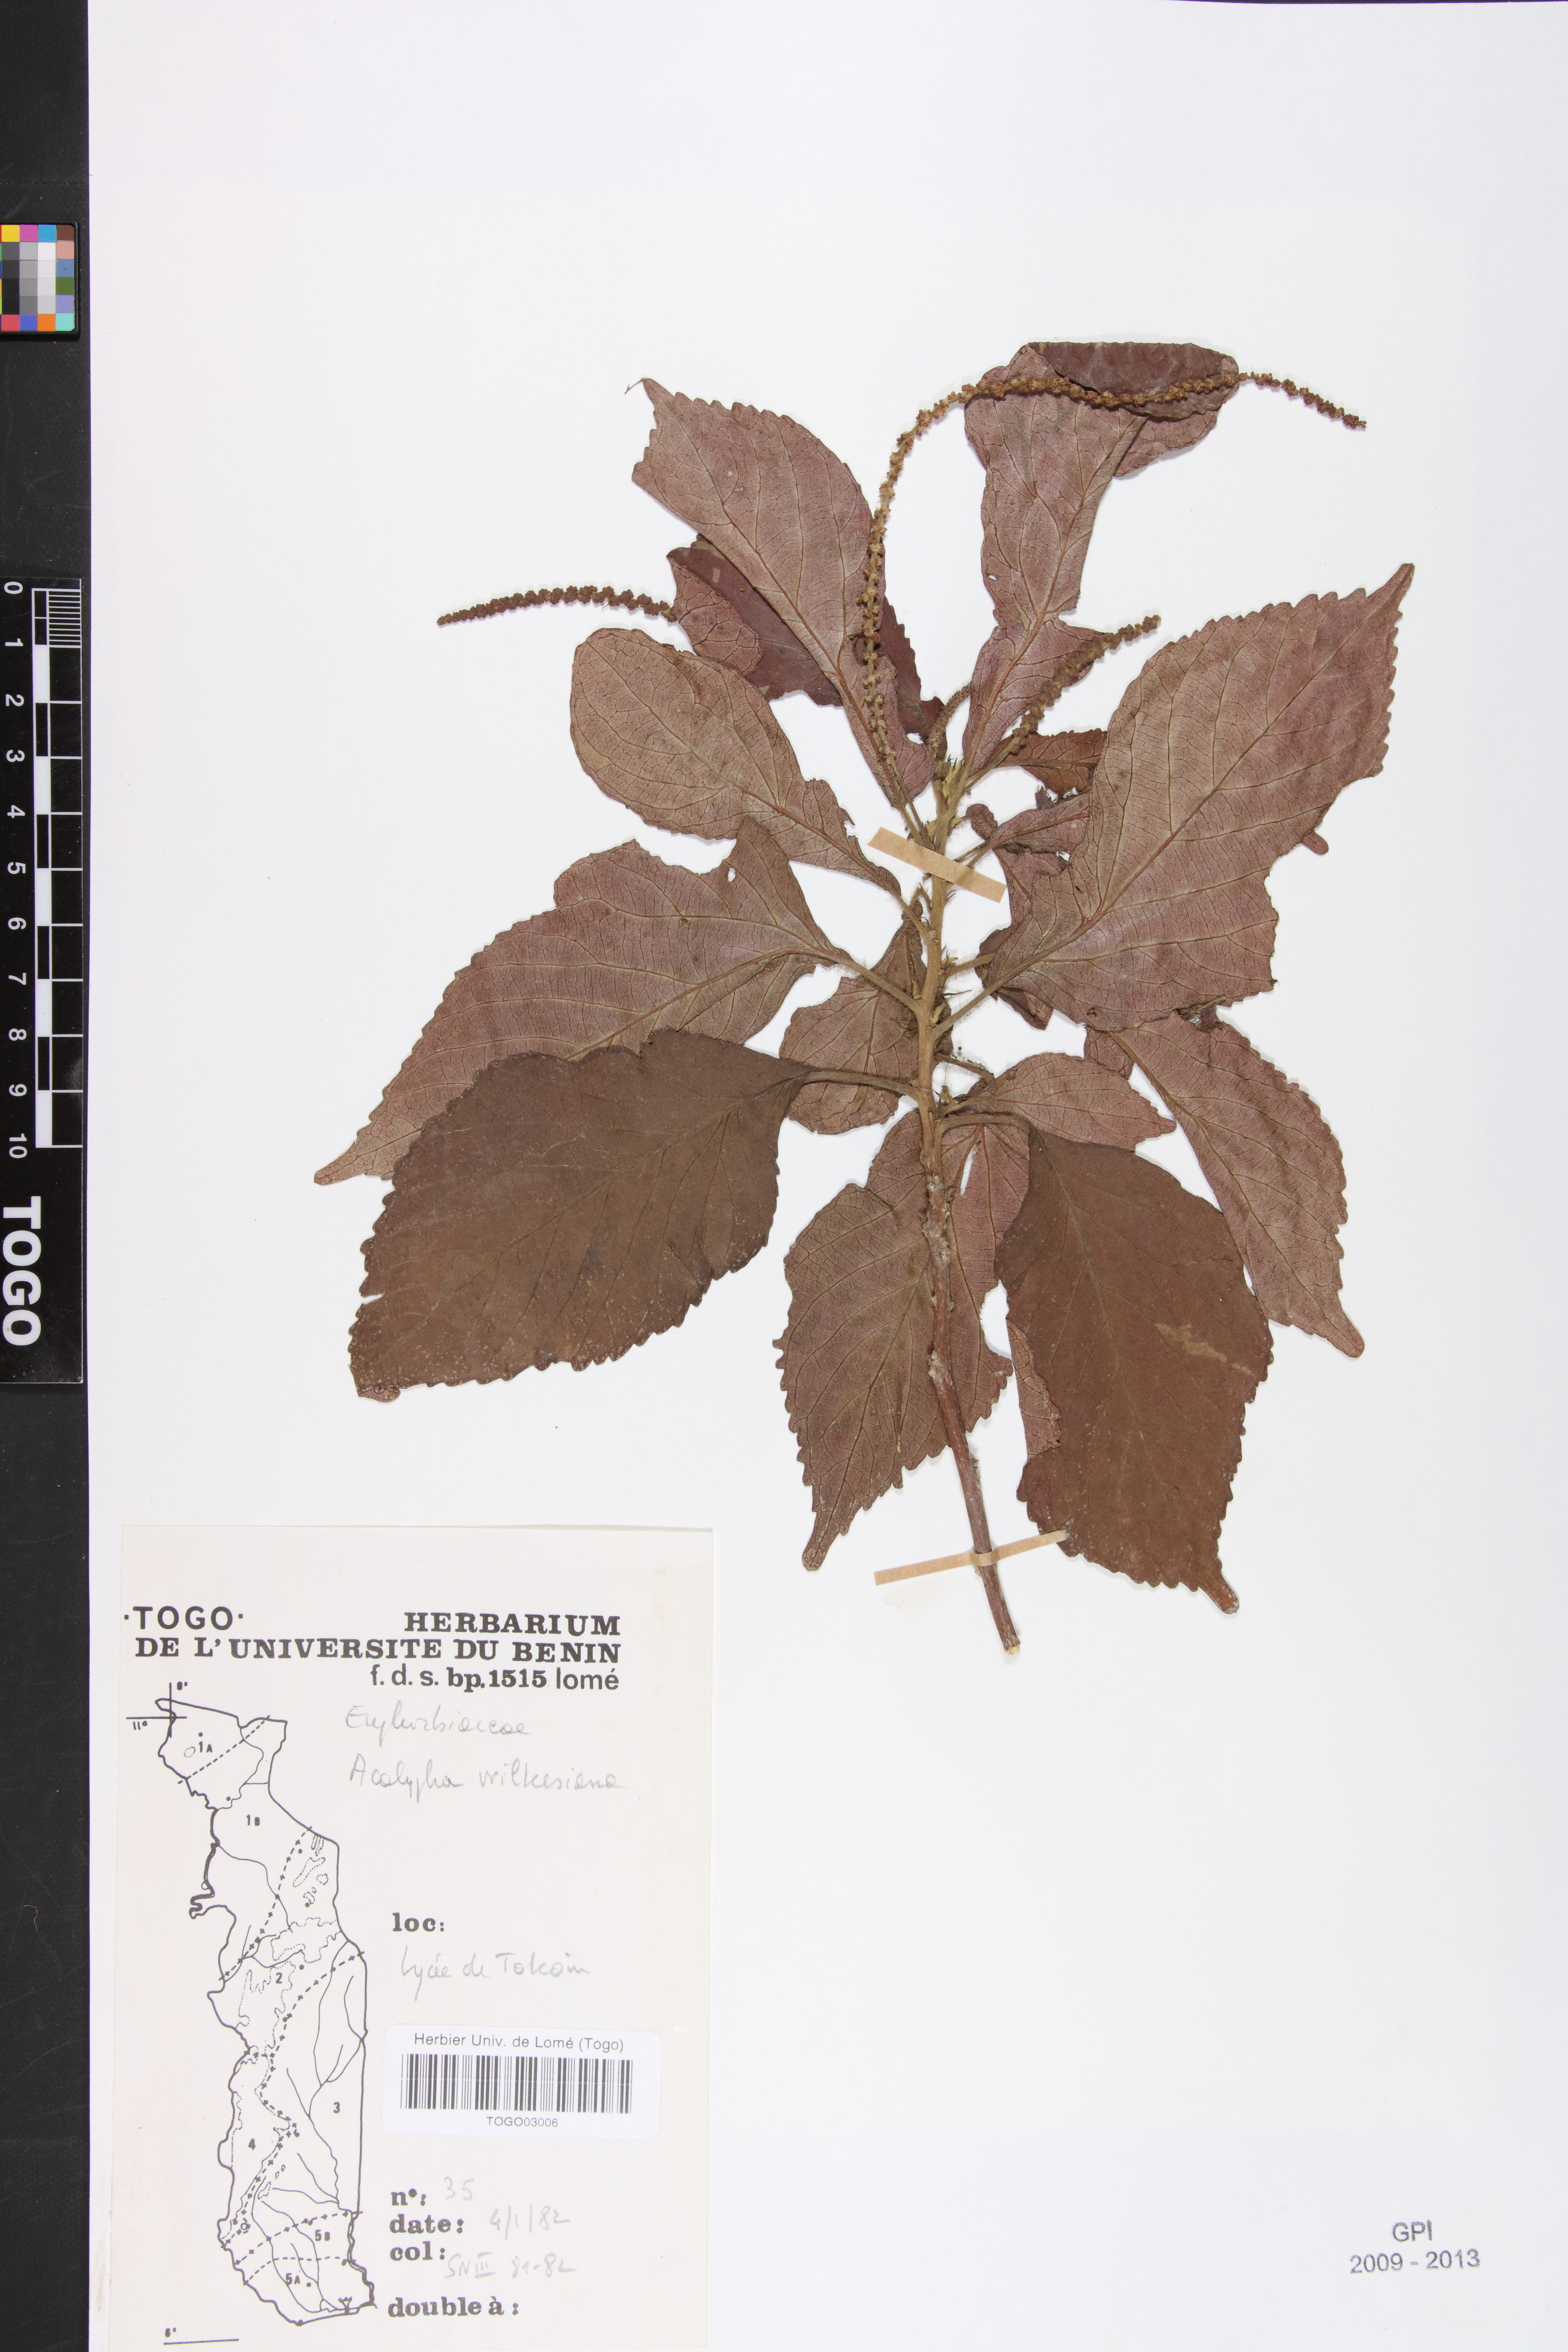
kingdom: Plantae
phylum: Tracheophyta
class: Magnoliopsida
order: Malpighiales
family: Euphorbiaceae
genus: Acalypha
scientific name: Acalypha paniculata
